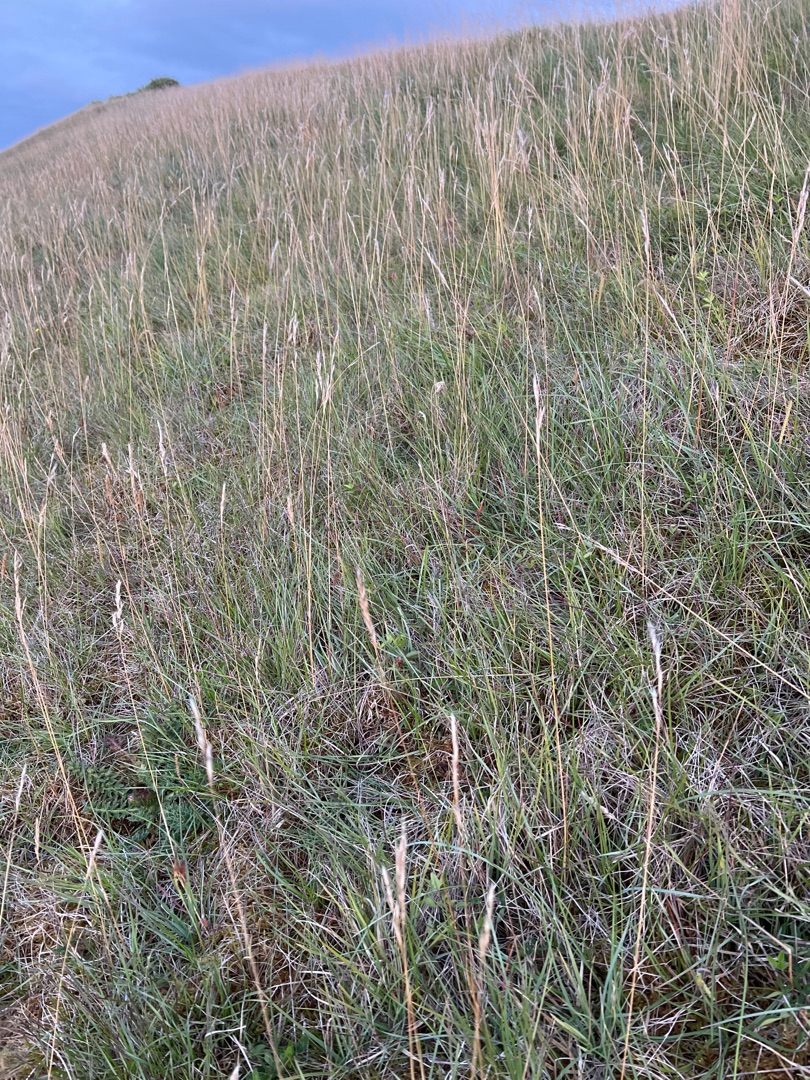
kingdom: Plantae
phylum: Tracheophyta
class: Liliopsida
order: Poales
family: Poaceae
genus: Helictochloa
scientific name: Helictochloa pratensis
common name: Eng-havre
